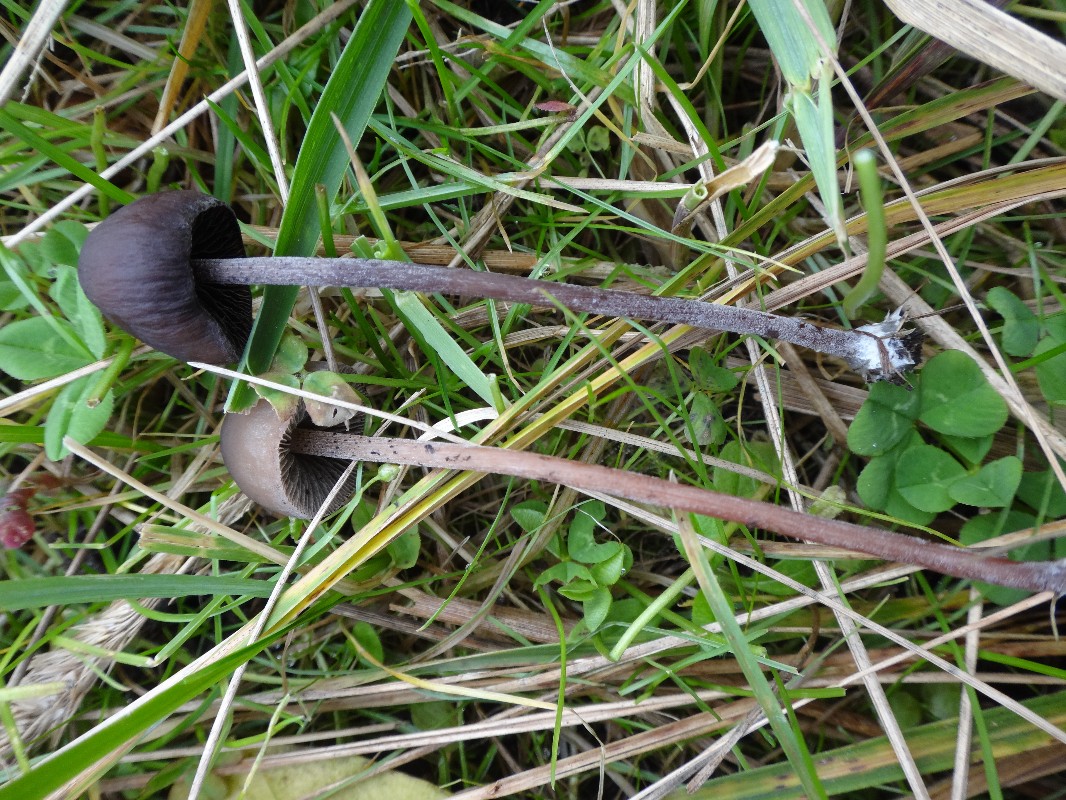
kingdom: Fungi
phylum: Basidiomycota
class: Agaricomycetes
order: Agaricales
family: Bolbitiaceae
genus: Panaeolus
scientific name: Panaeolus acuminatus
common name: høj glanshat
